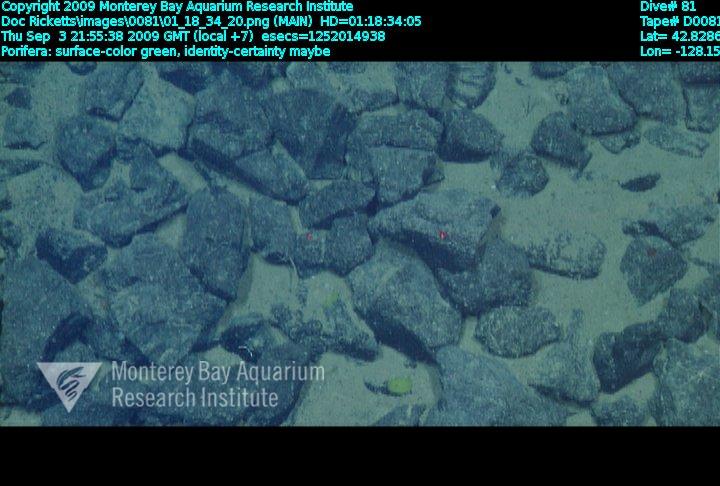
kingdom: Animalia
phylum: Porifera
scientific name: Porifera
